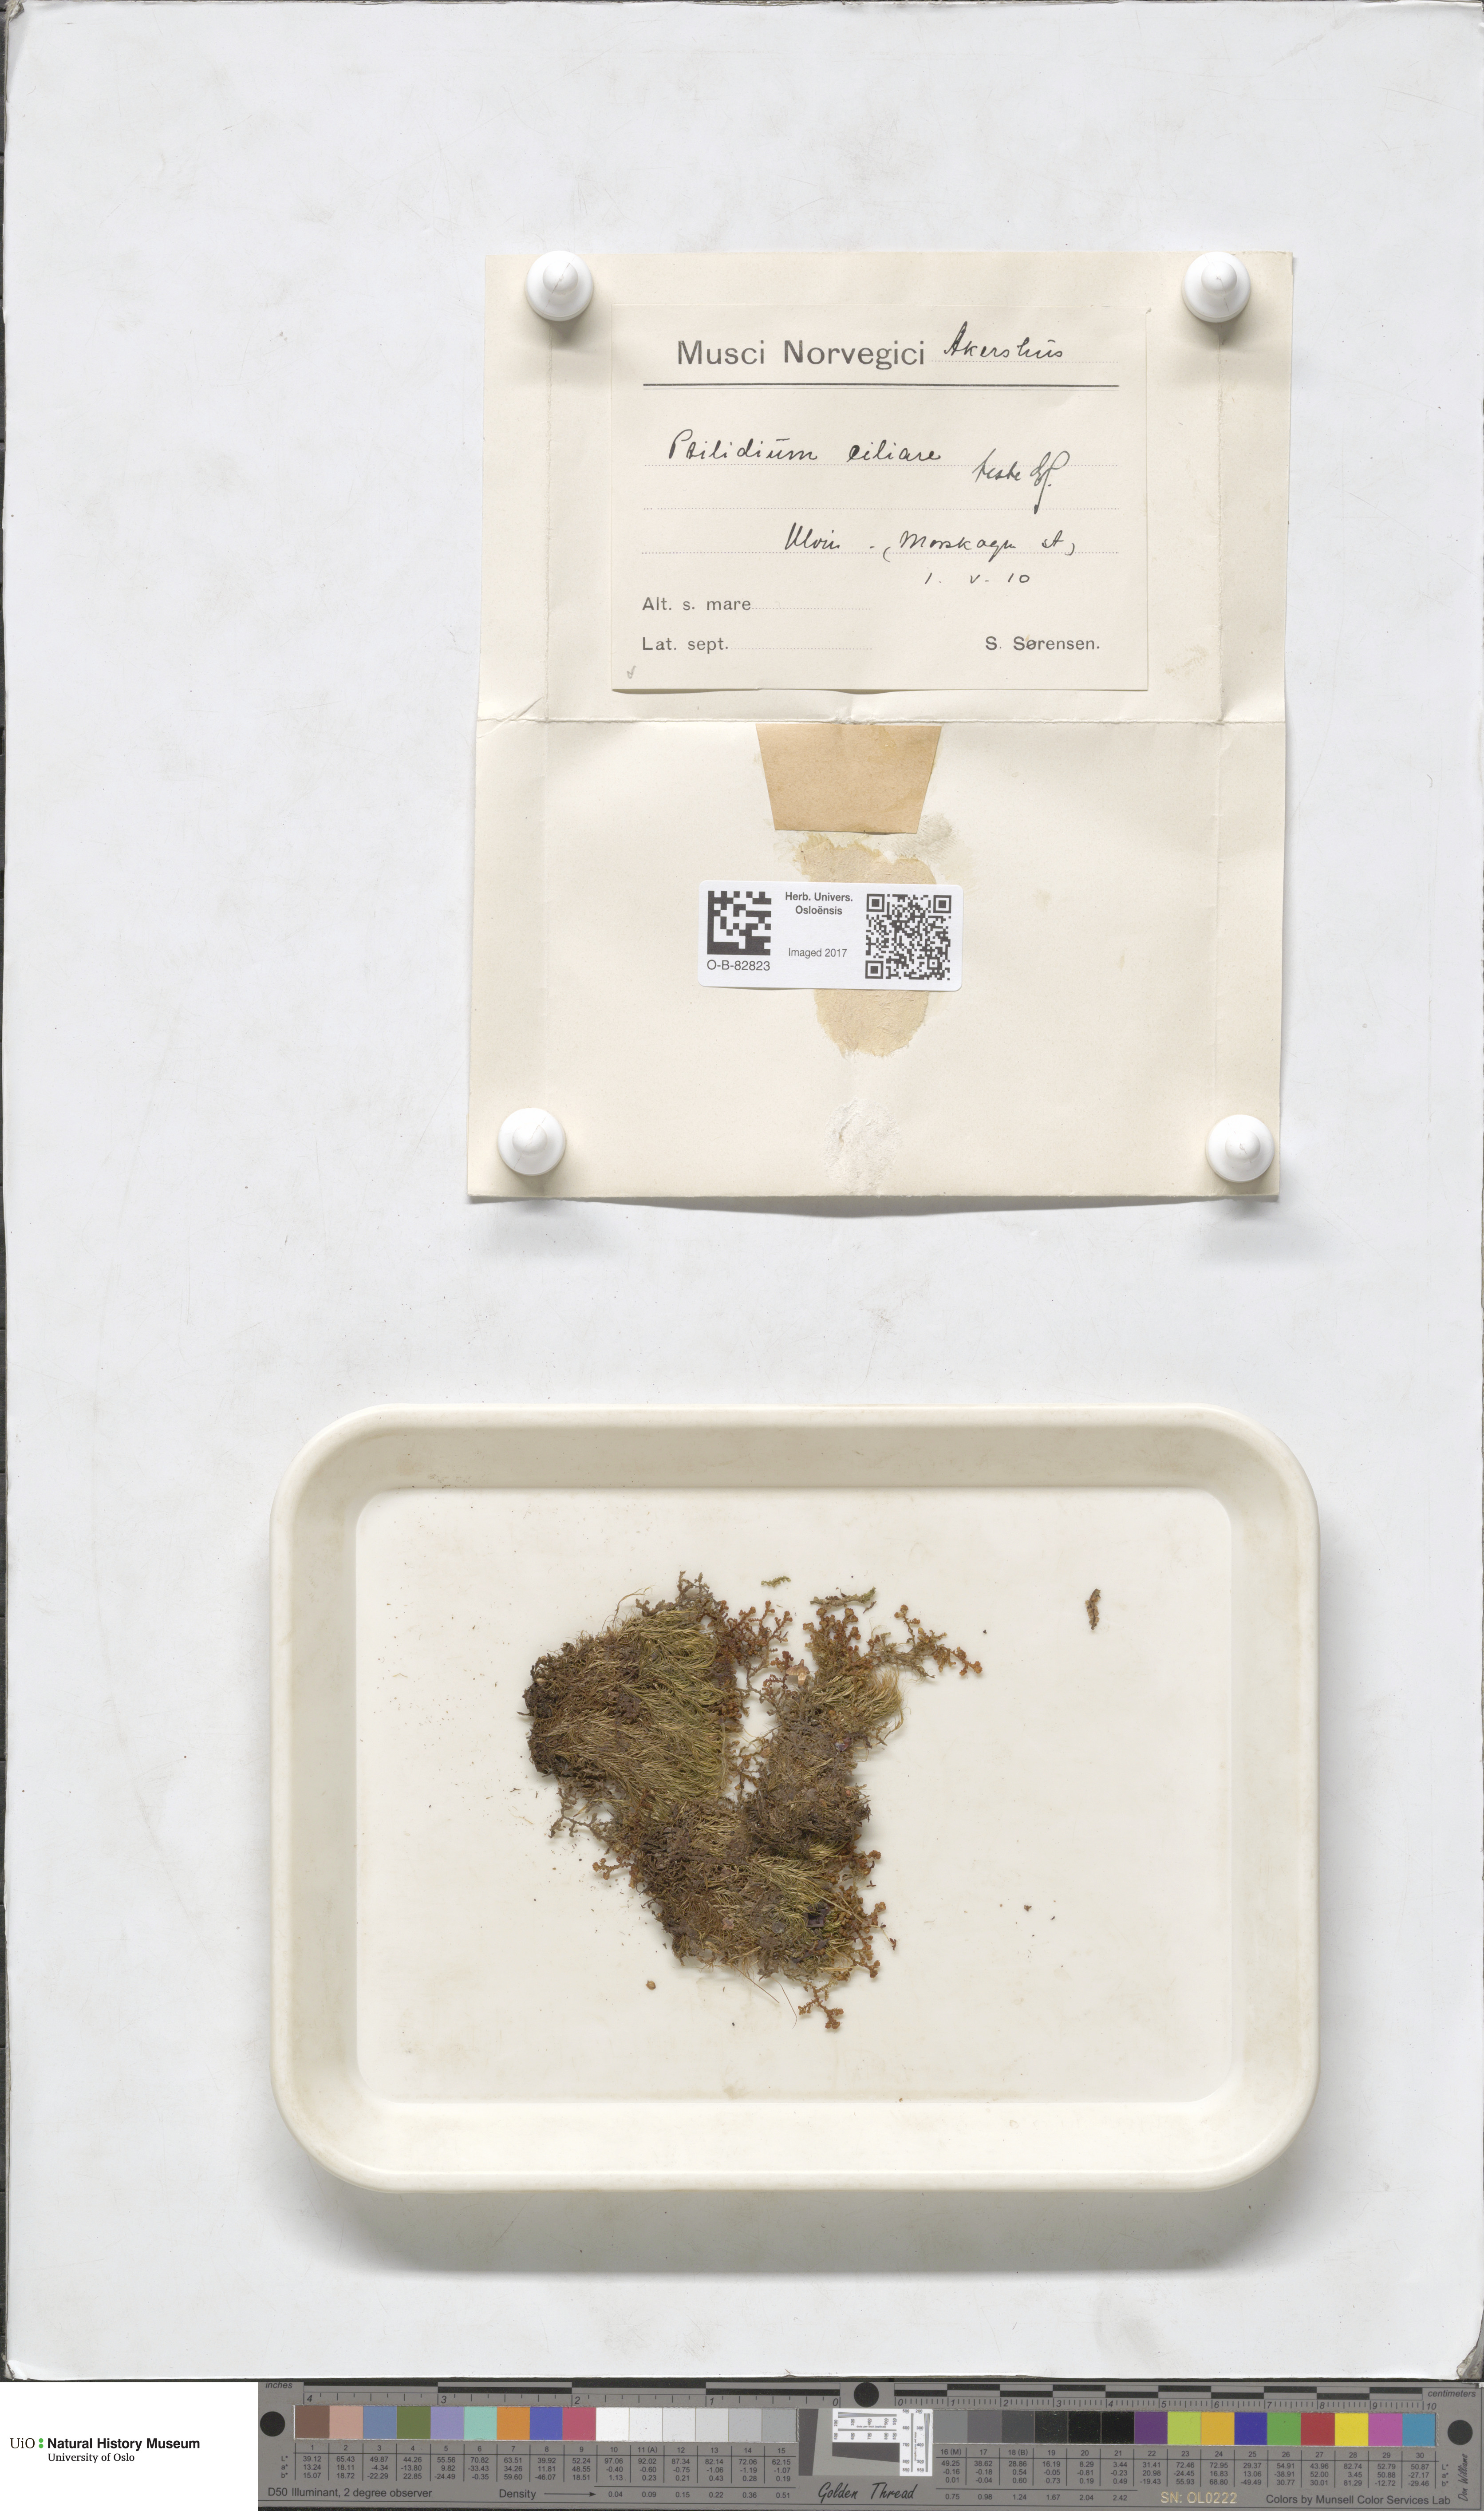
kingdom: Plantae
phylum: Marchantiophyta
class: Jungermanniopsida
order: Ptilidiales
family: Ptilidiaceae
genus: Ptilidium
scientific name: Ptilidium ciliare
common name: Ciliate fringewort
